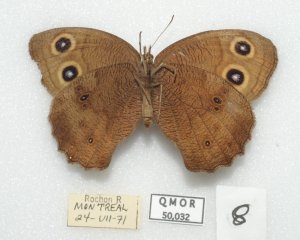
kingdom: Animalia
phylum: Arthropoda
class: Insecta
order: Lepidoptera
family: Nymphalidae
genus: Cercyonis
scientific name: Cercyonis pegala
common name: Common Wood-Nymph
